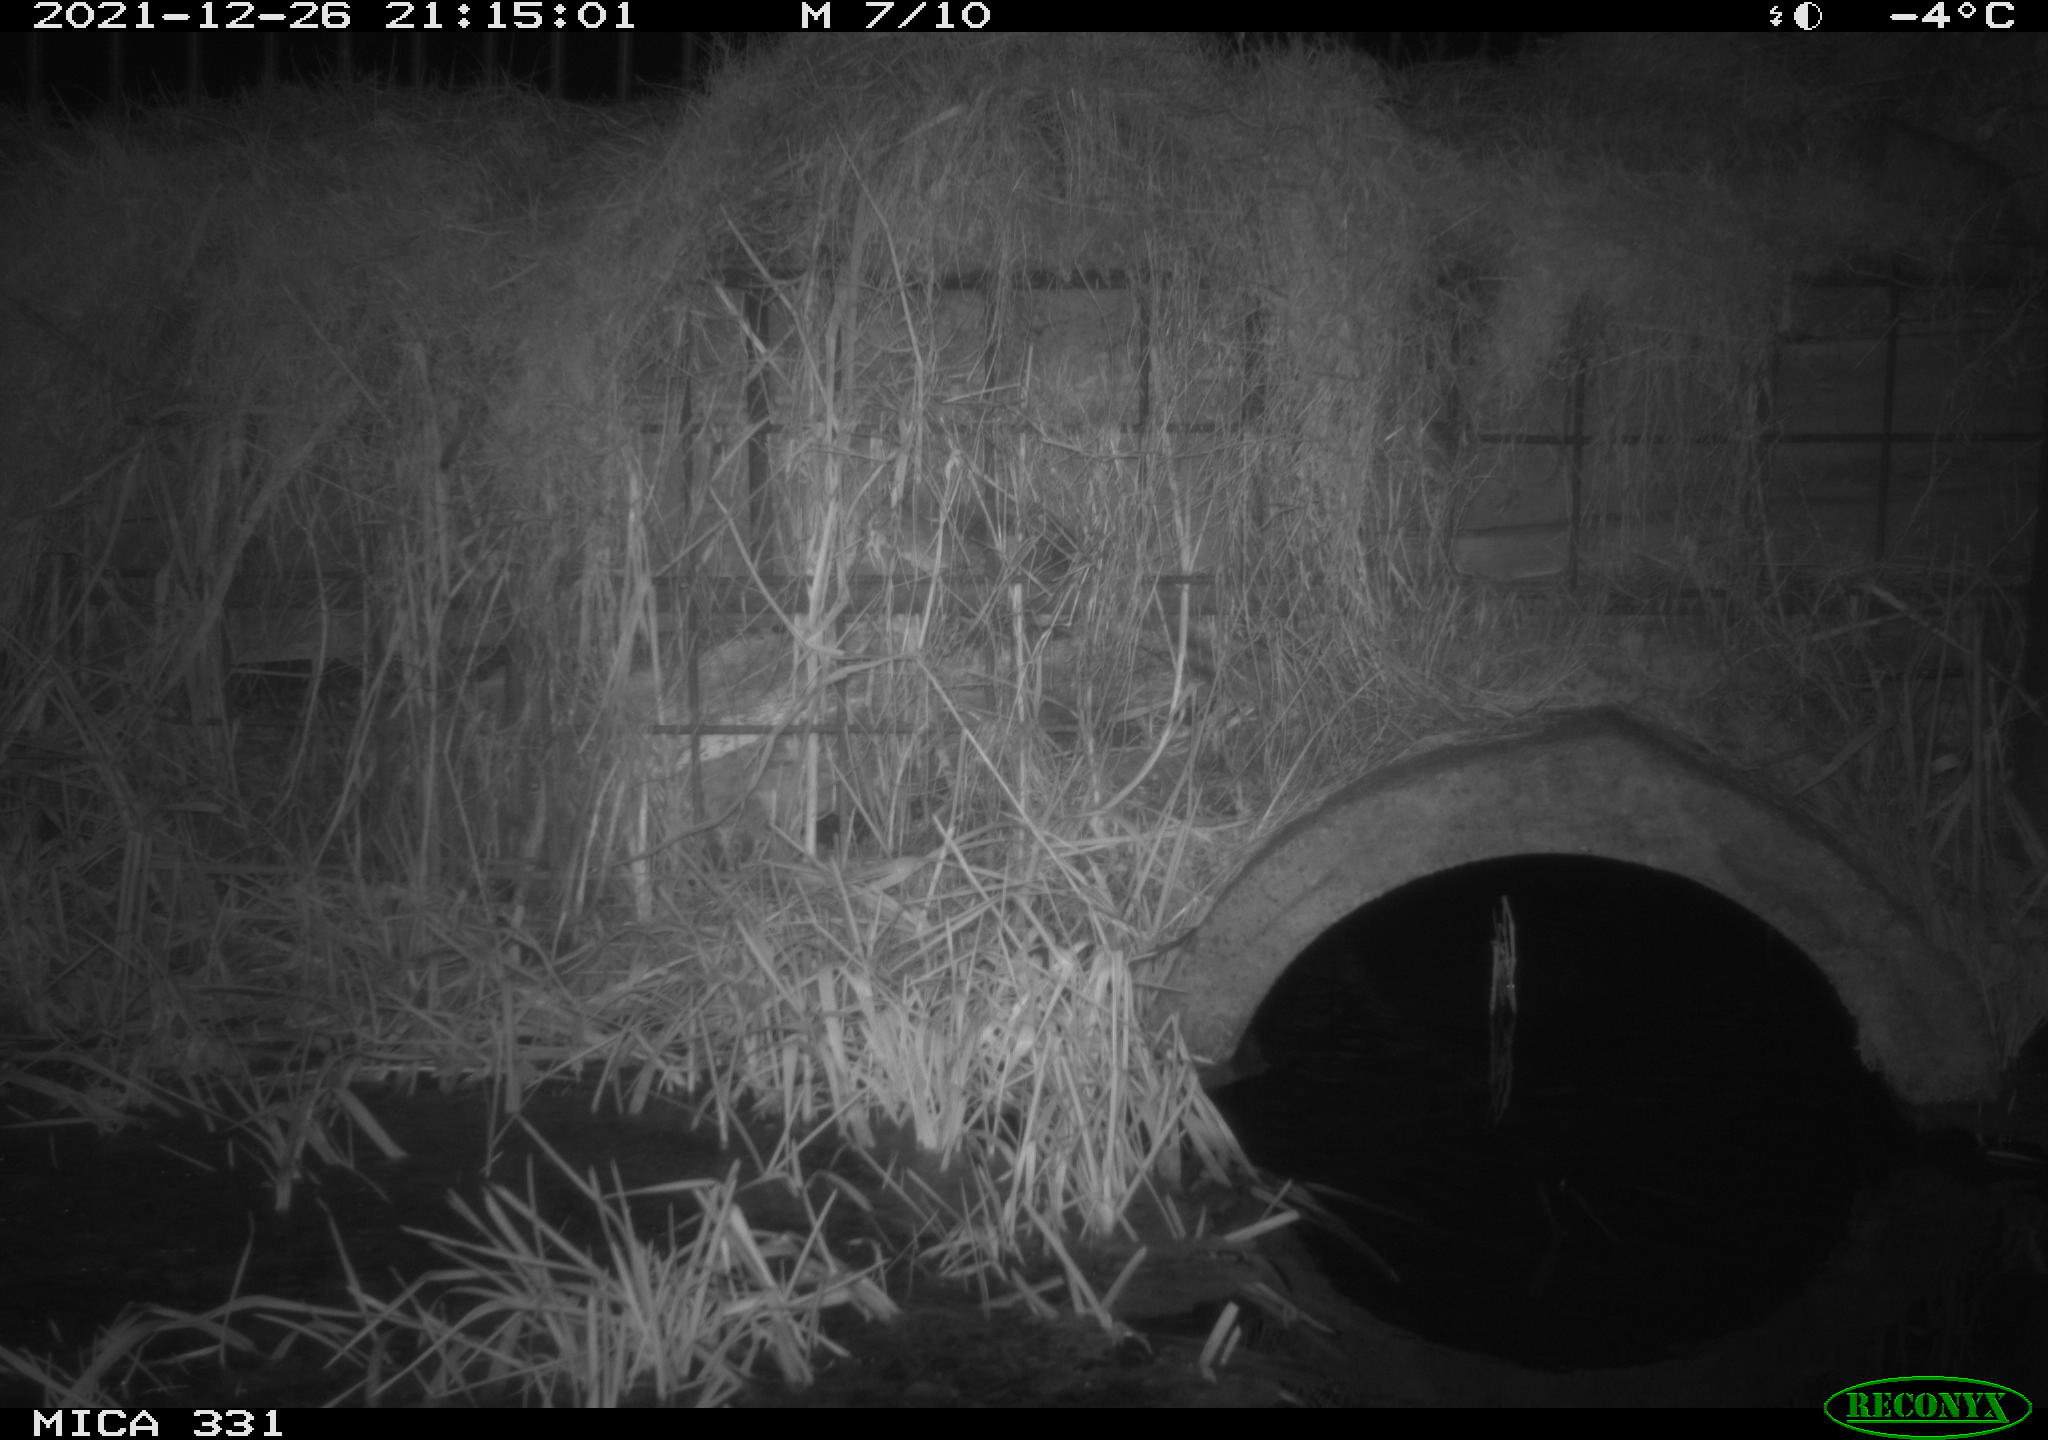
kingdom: Animalia
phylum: Chordata
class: Mammalia
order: Rodentia
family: Muridae
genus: Rattus
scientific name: Rattus norvegicus
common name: Brown rat
